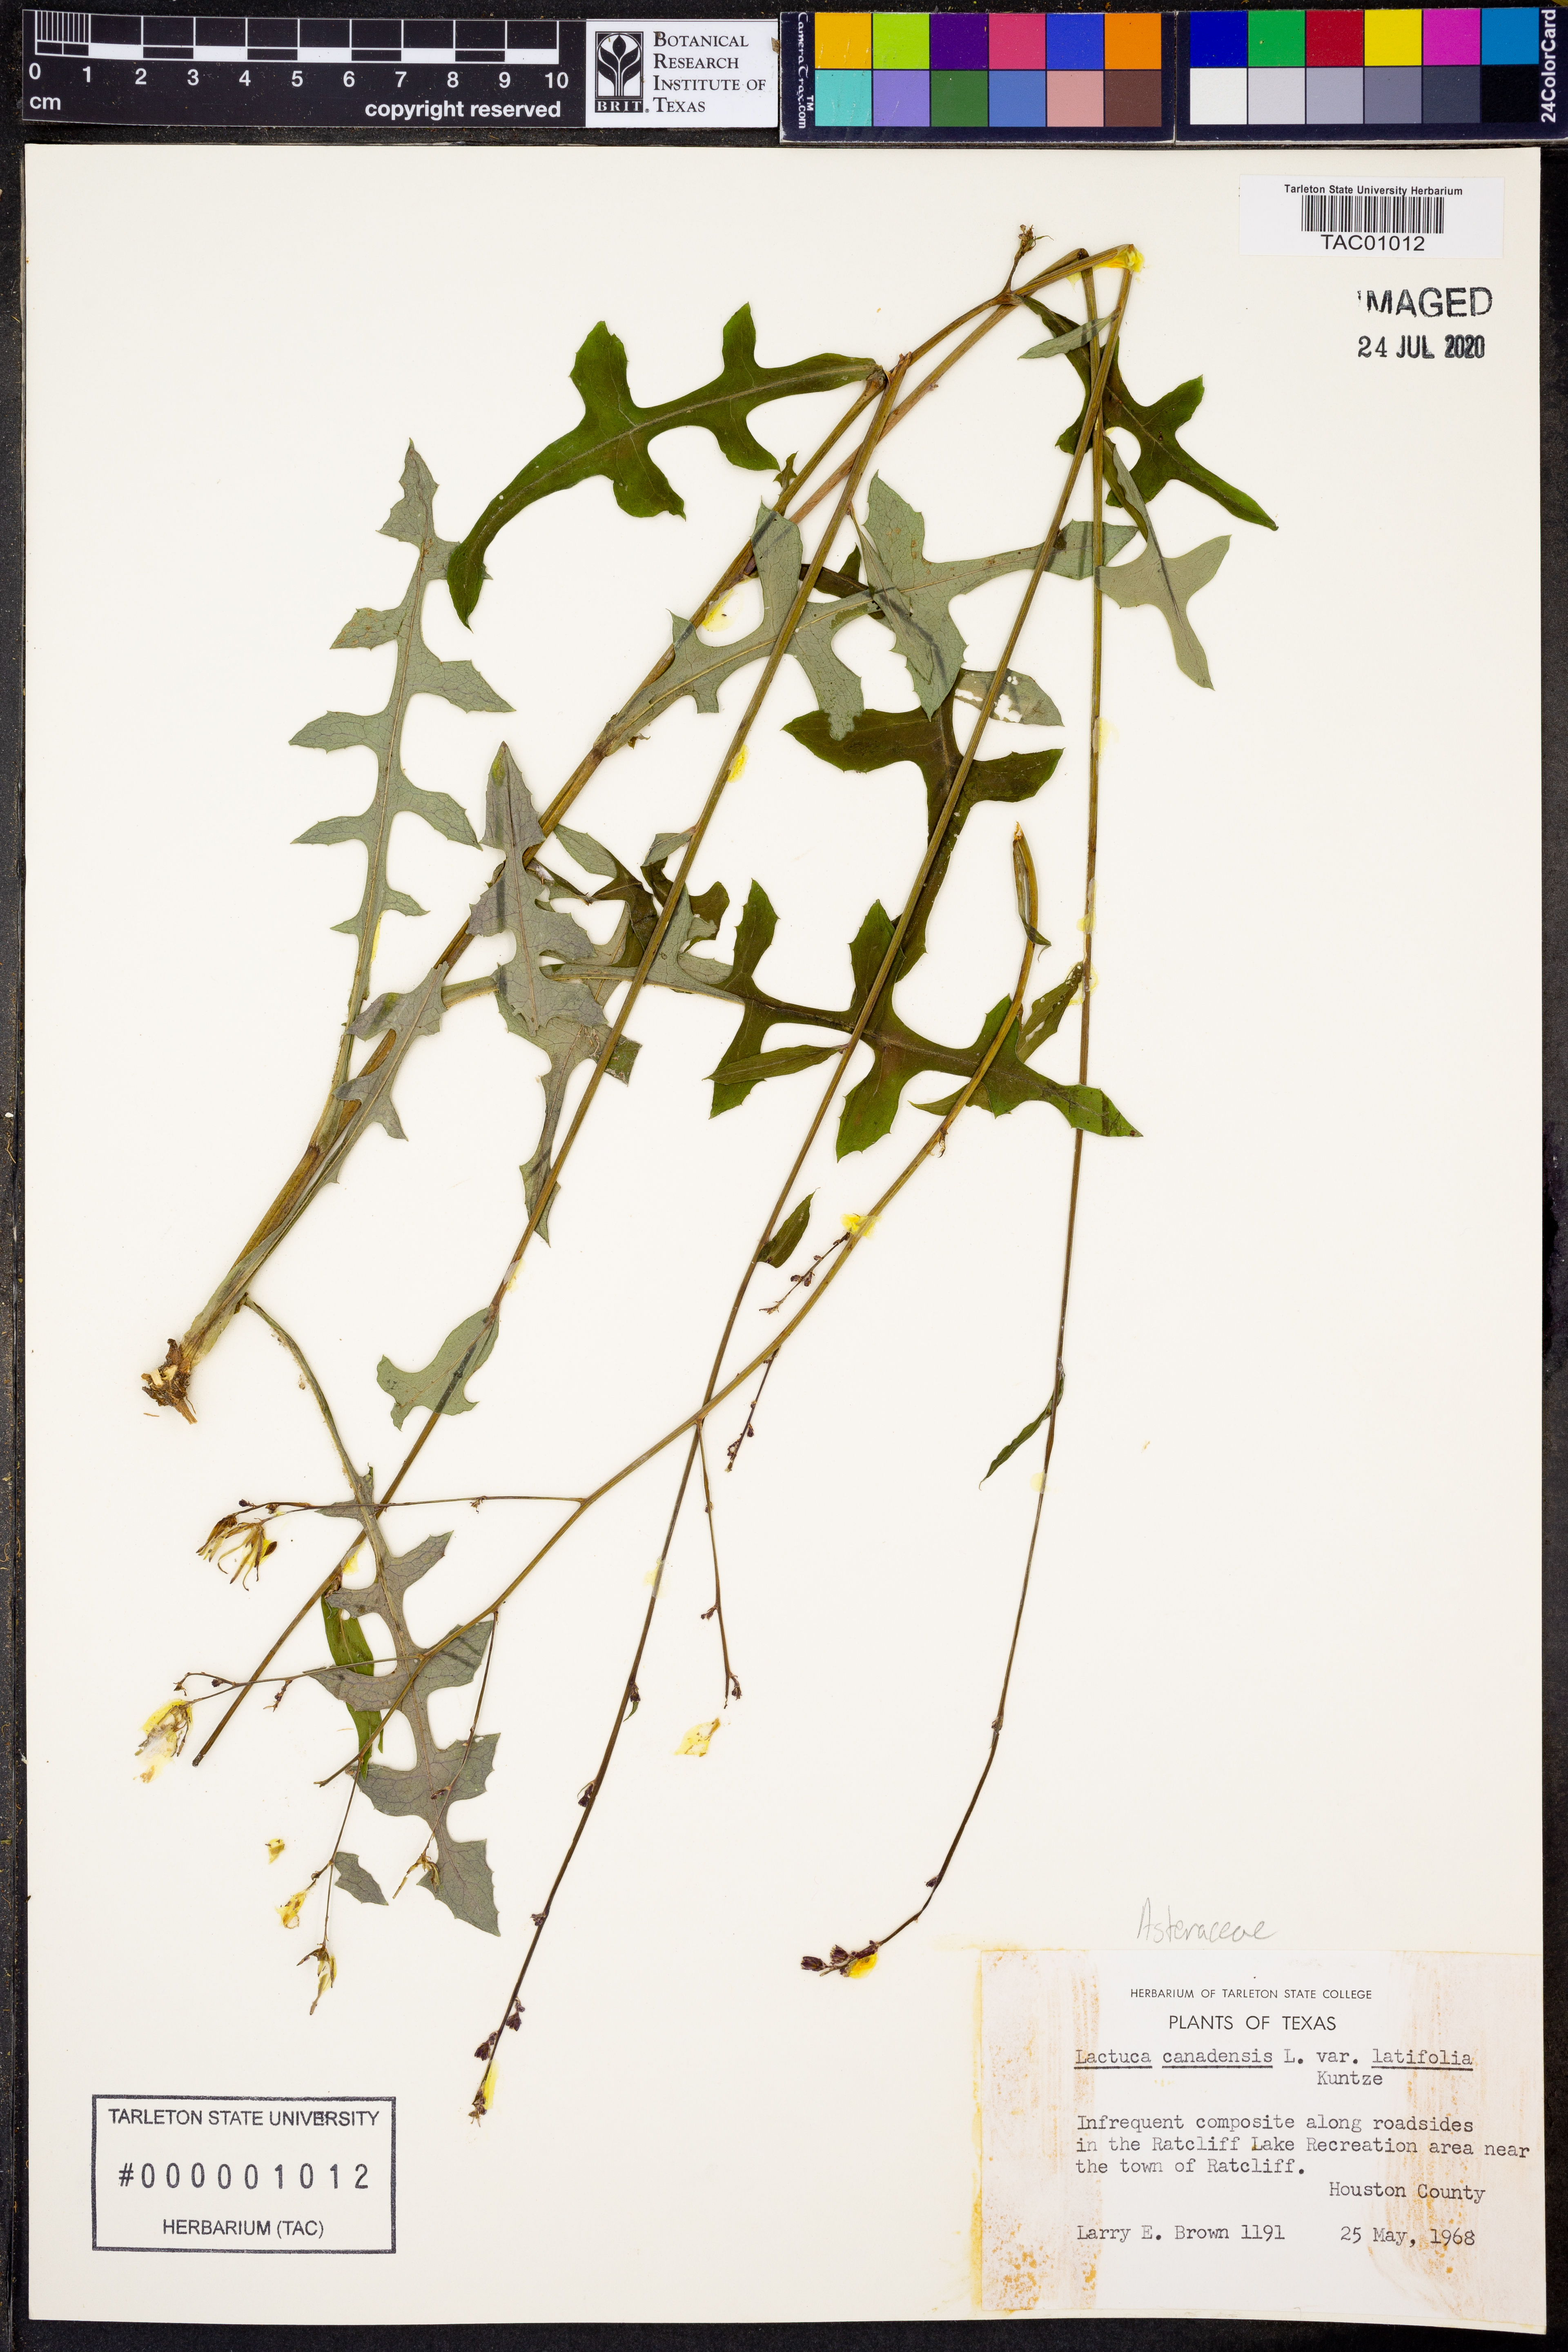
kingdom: Plantae
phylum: Tracheophyta
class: Magnoliopsida
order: Asterales
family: Asteraceae
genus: Lactuca
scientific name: Lactuca canadensis
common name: Canada lettuce
